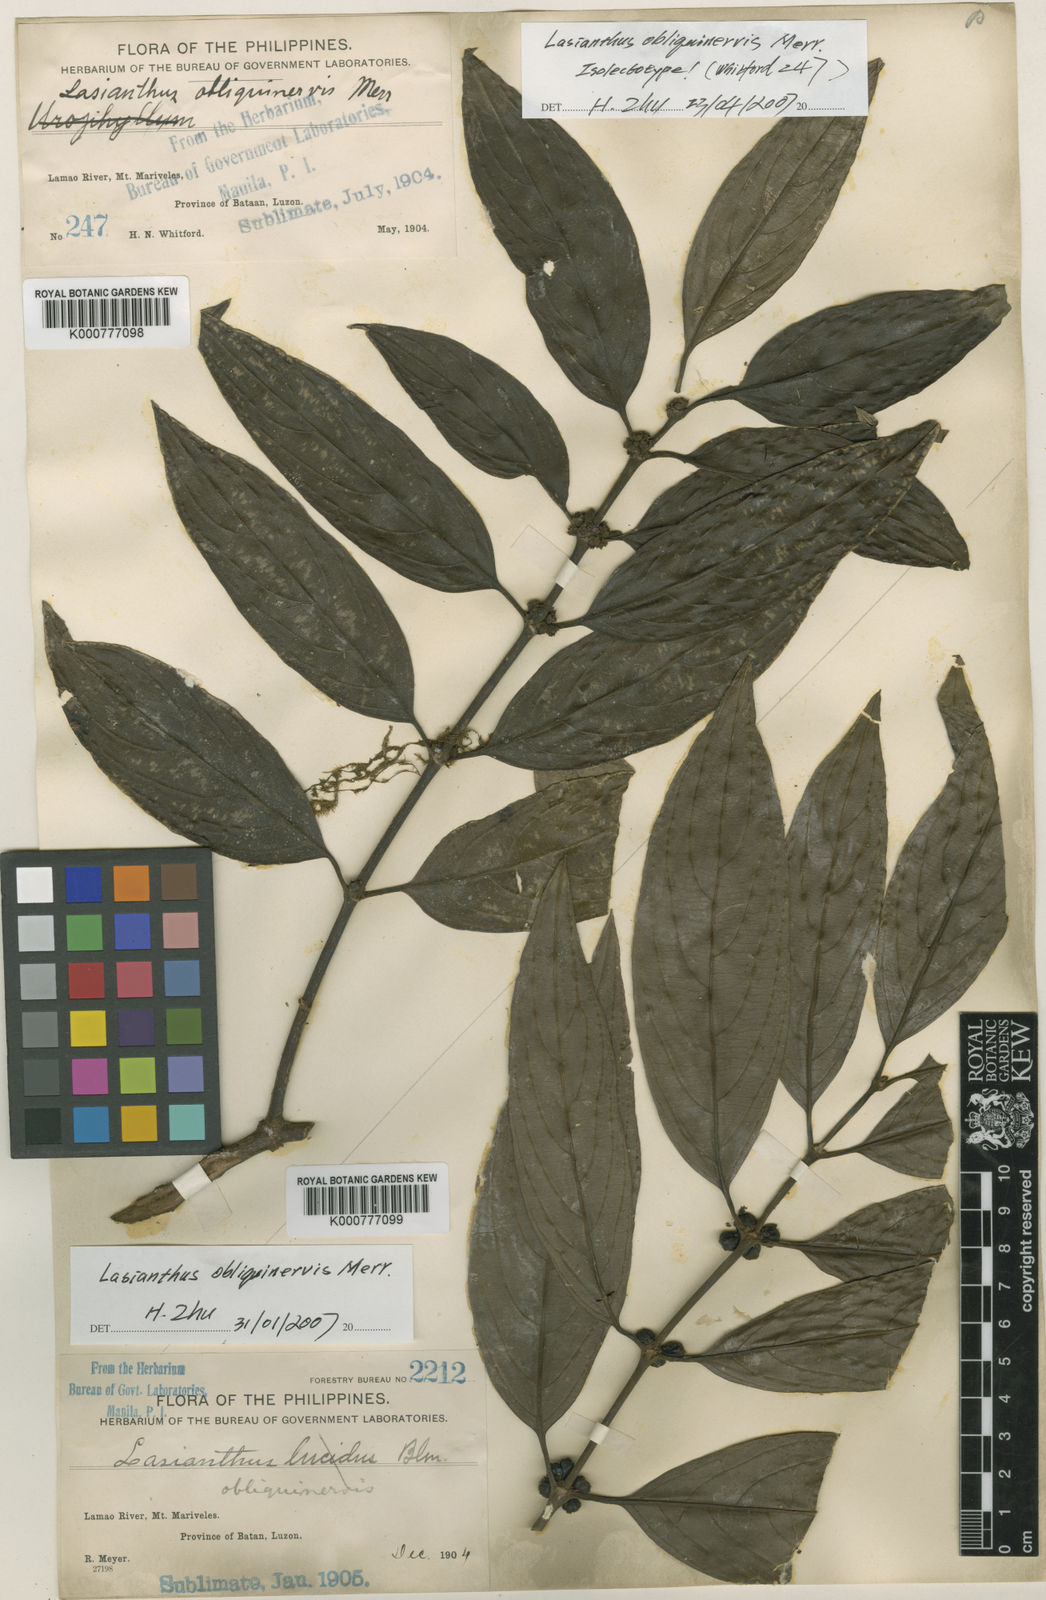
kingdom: Plantae
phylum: Tracheophyta
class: Magnoliopsida
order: Gentianales
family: Rubiaceae
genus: Lasianthus
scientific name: Lasianthus obliquinervis
